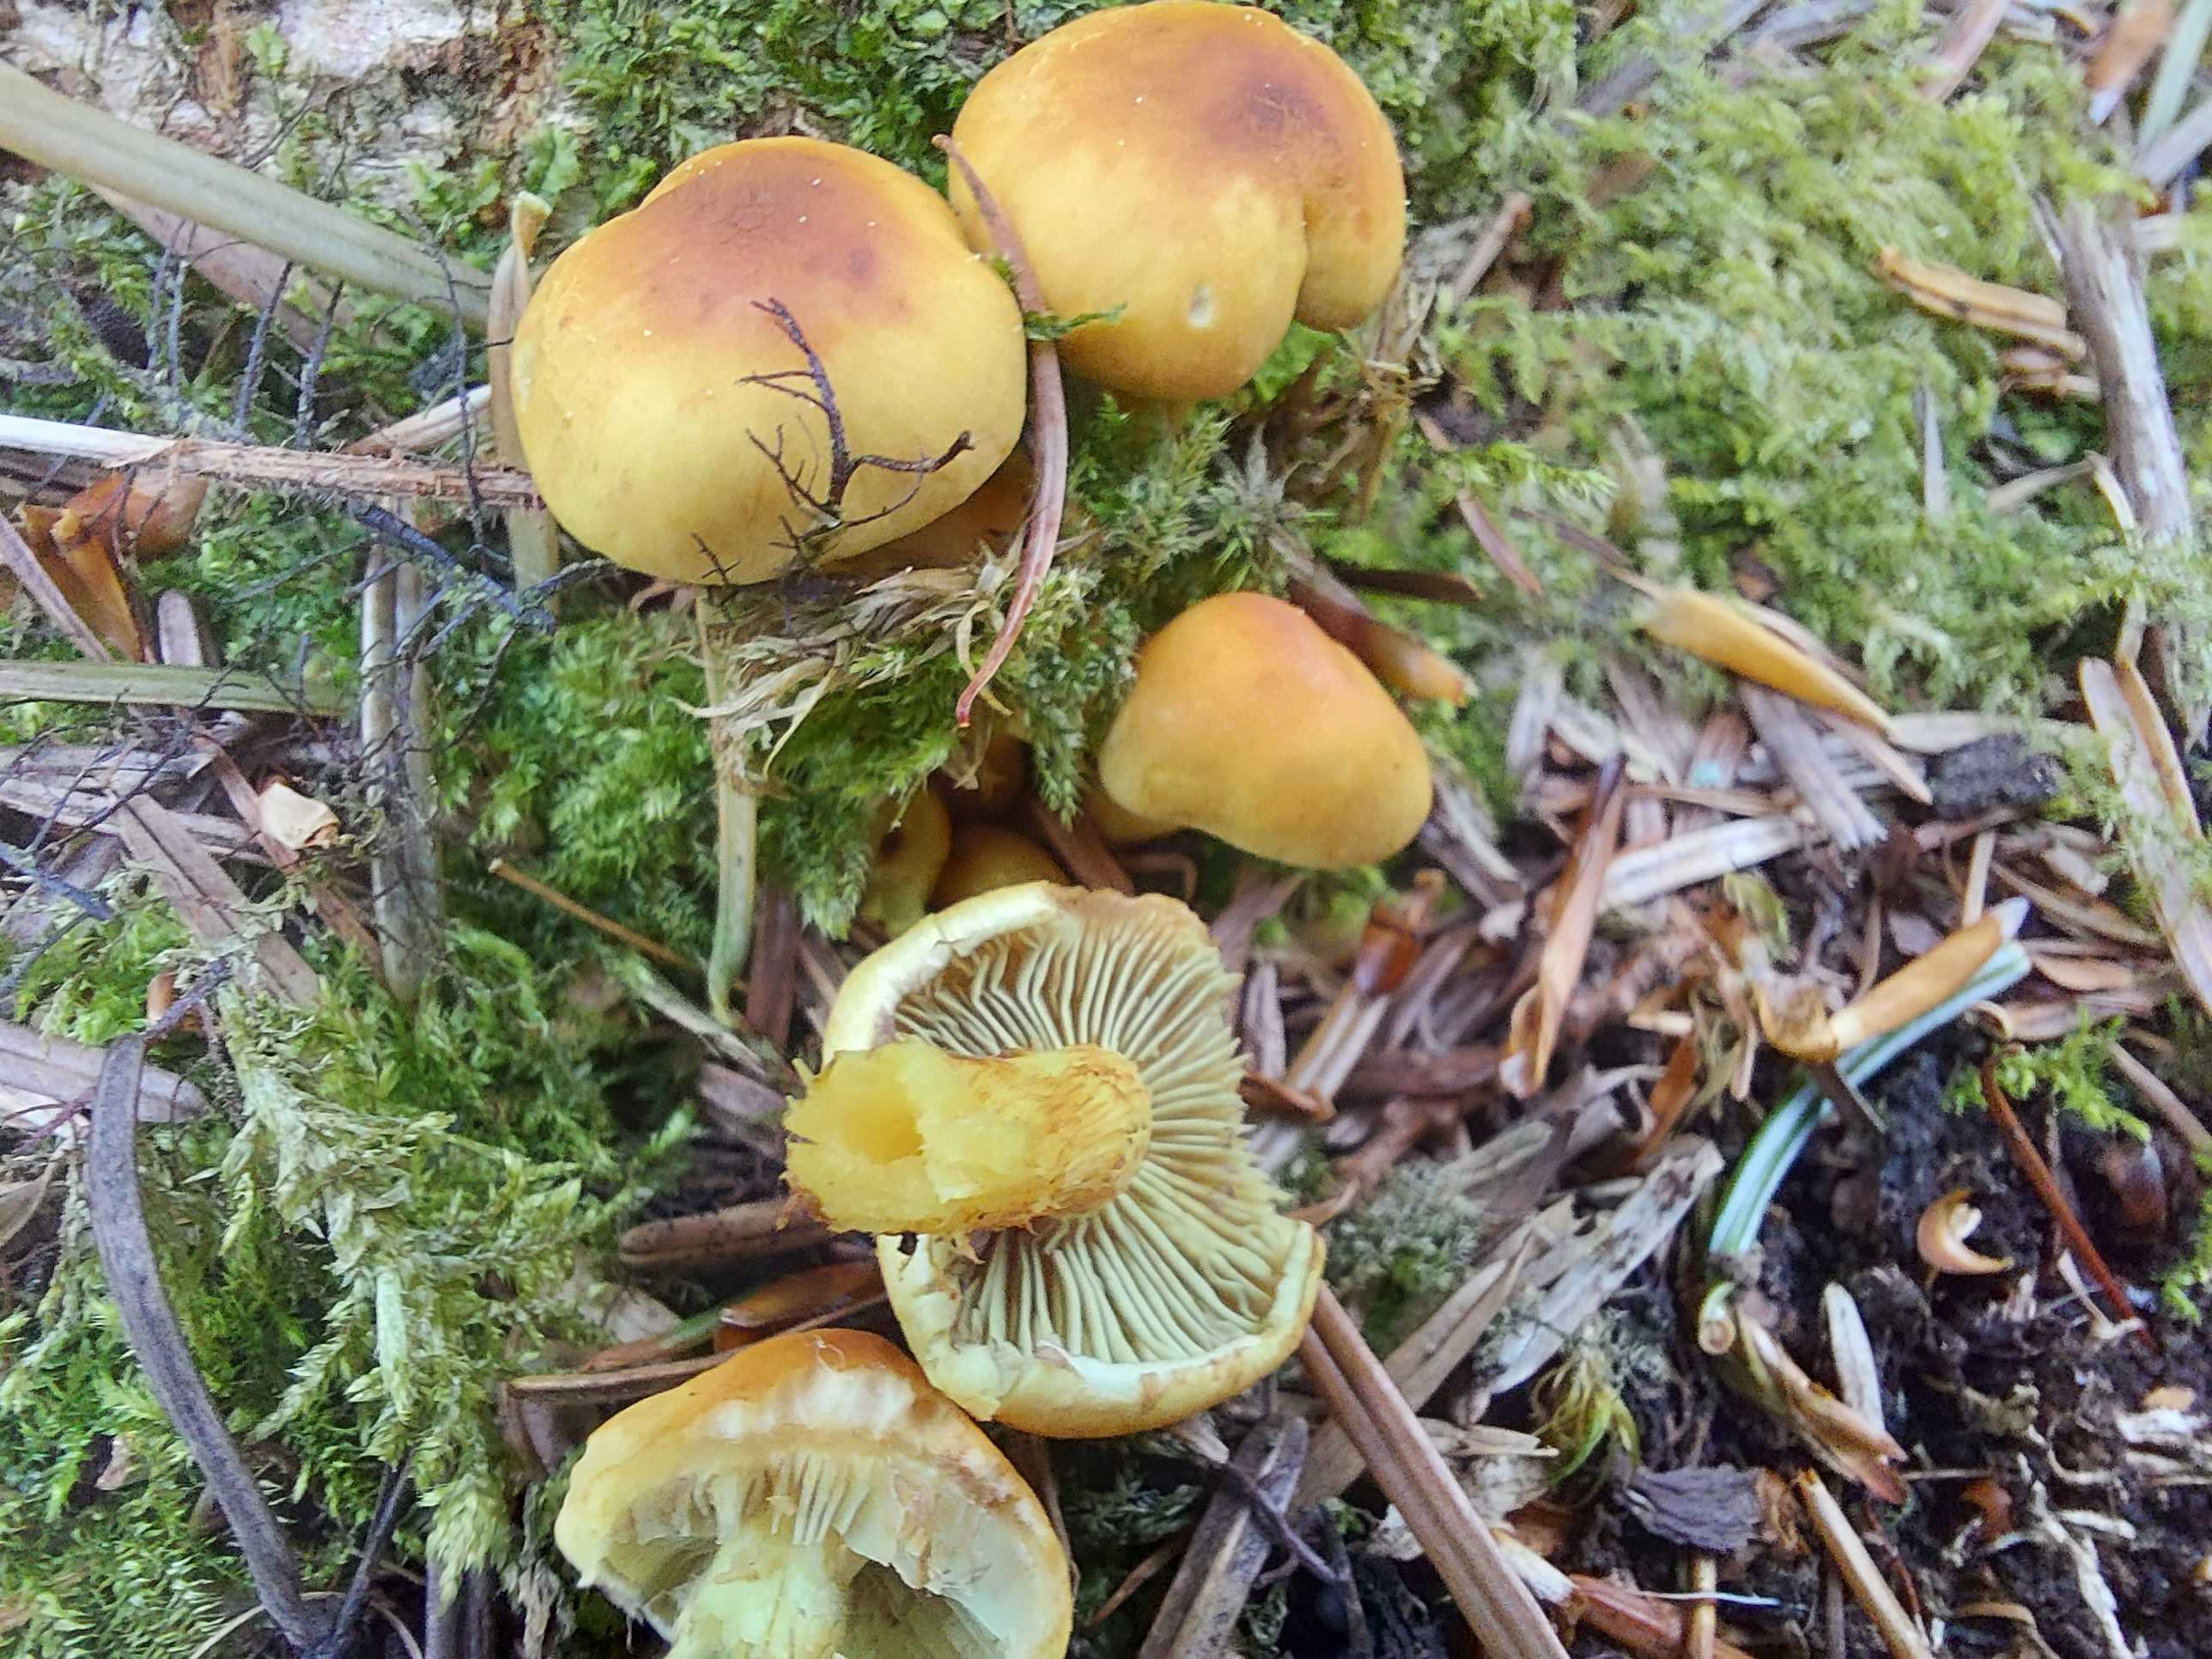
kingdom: Fungi
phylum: Basidiomycota
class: Agaricomycetes
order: Agaricales
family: Strophariaceae
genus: Hypholoma
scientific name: Hypholoma fasciculare
